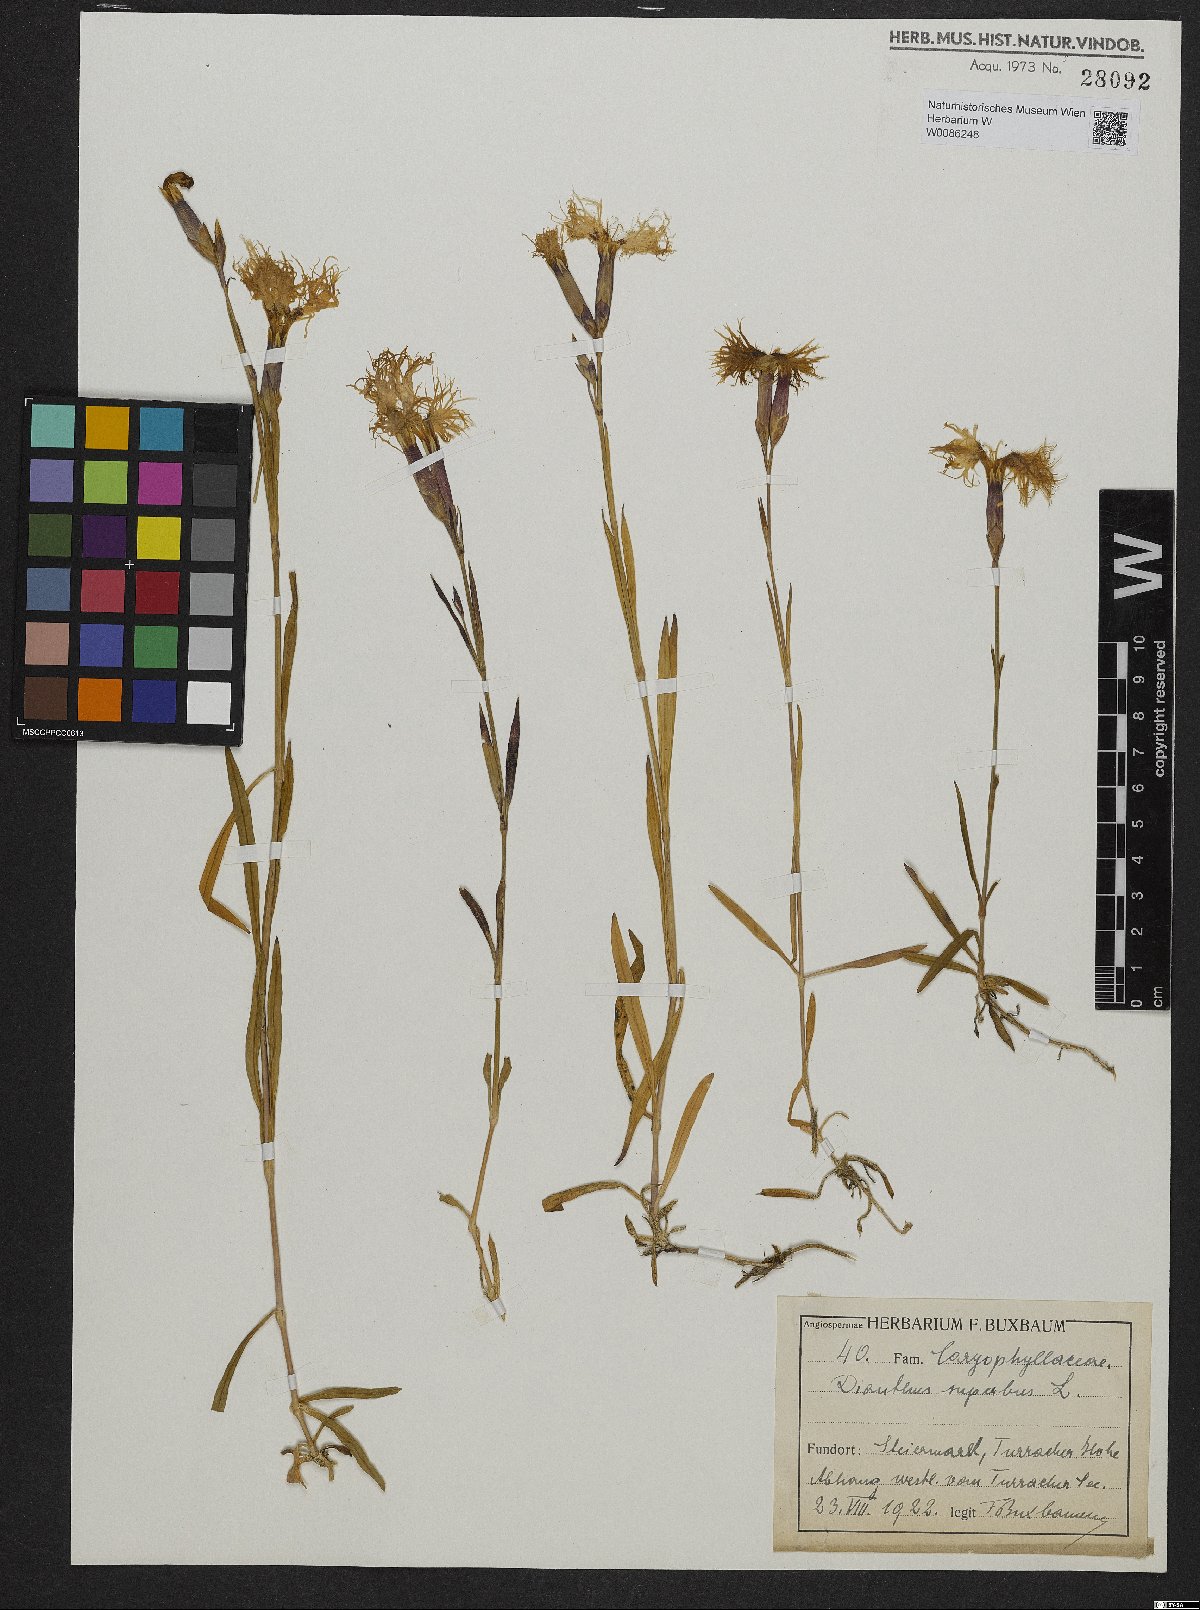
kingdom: Plantae
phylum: Tracheophyta
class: Magnoliopsida
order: Caryophyllales
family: Caryophyllaceae
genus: Dianthus
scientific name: Dianthus superbus
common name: Fringed pink
